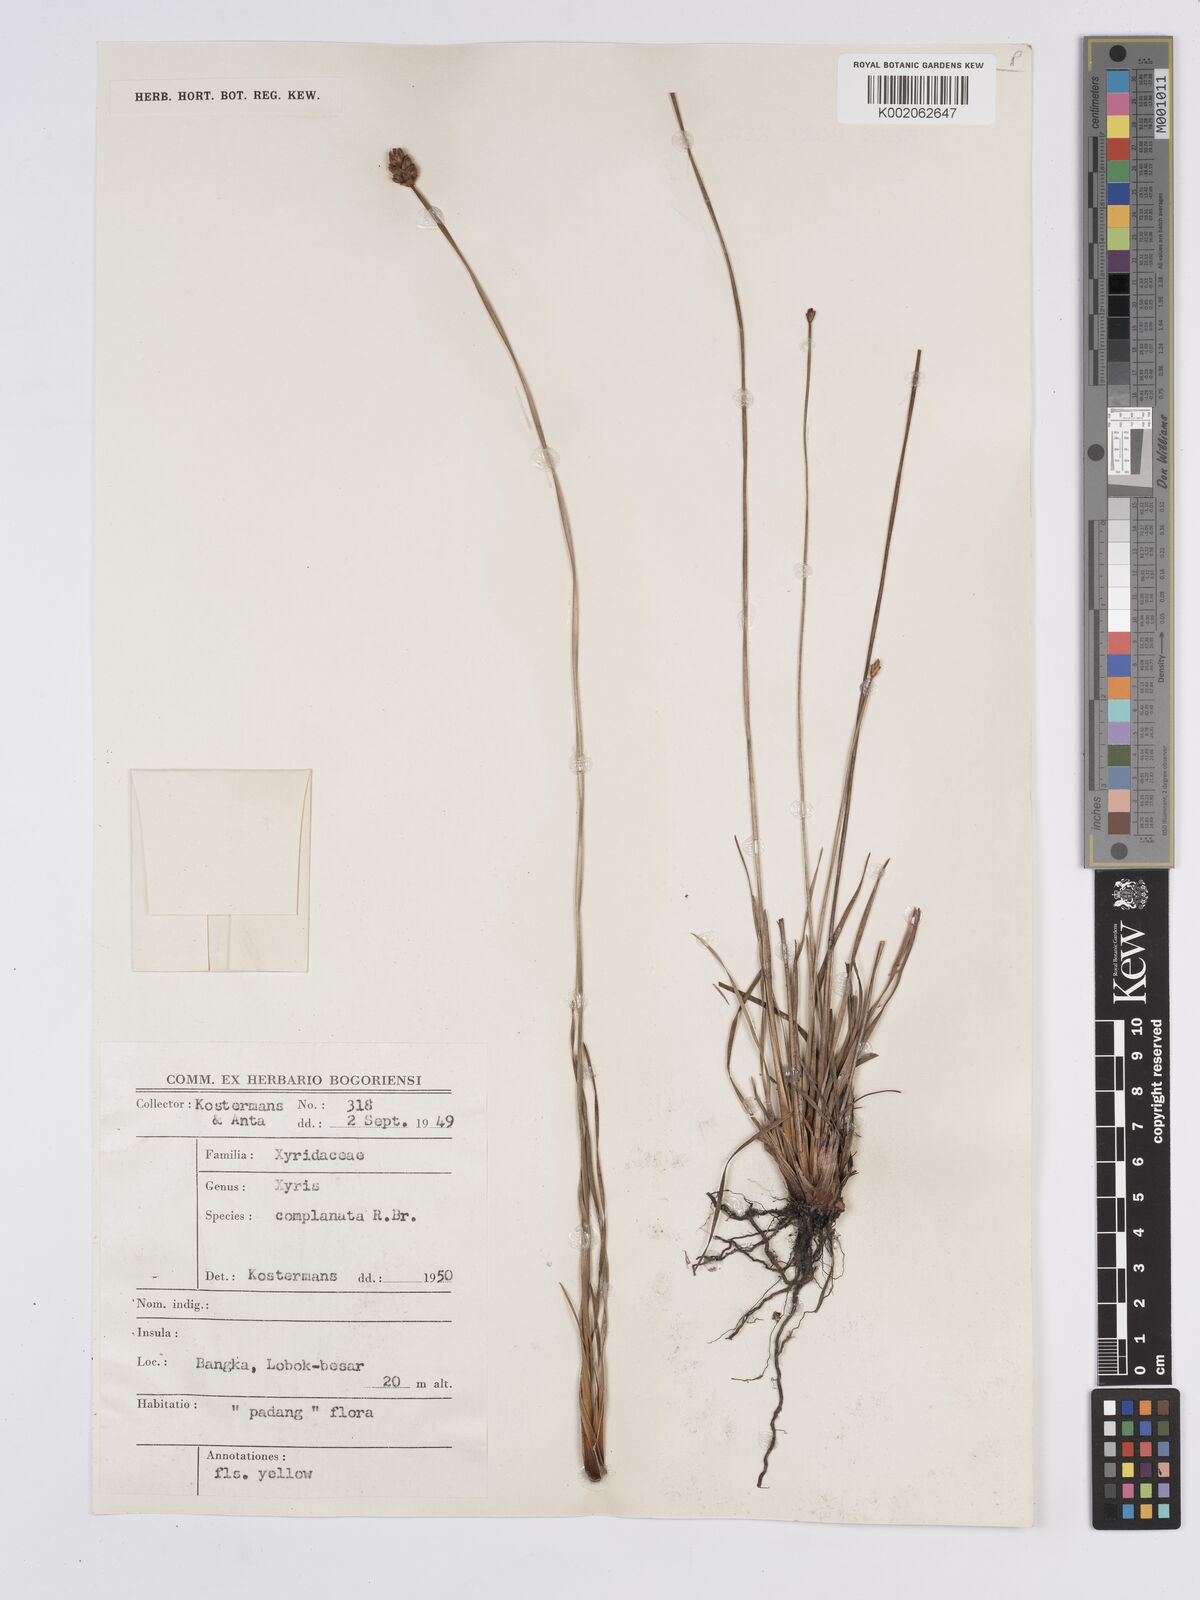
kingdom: Plantae
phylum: Tracheophyta
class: Liliopsida
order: Poales
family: Xyridaceae
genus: Xyris
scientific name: Xyris complanata
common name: Hawai'i yelloweyed grass
